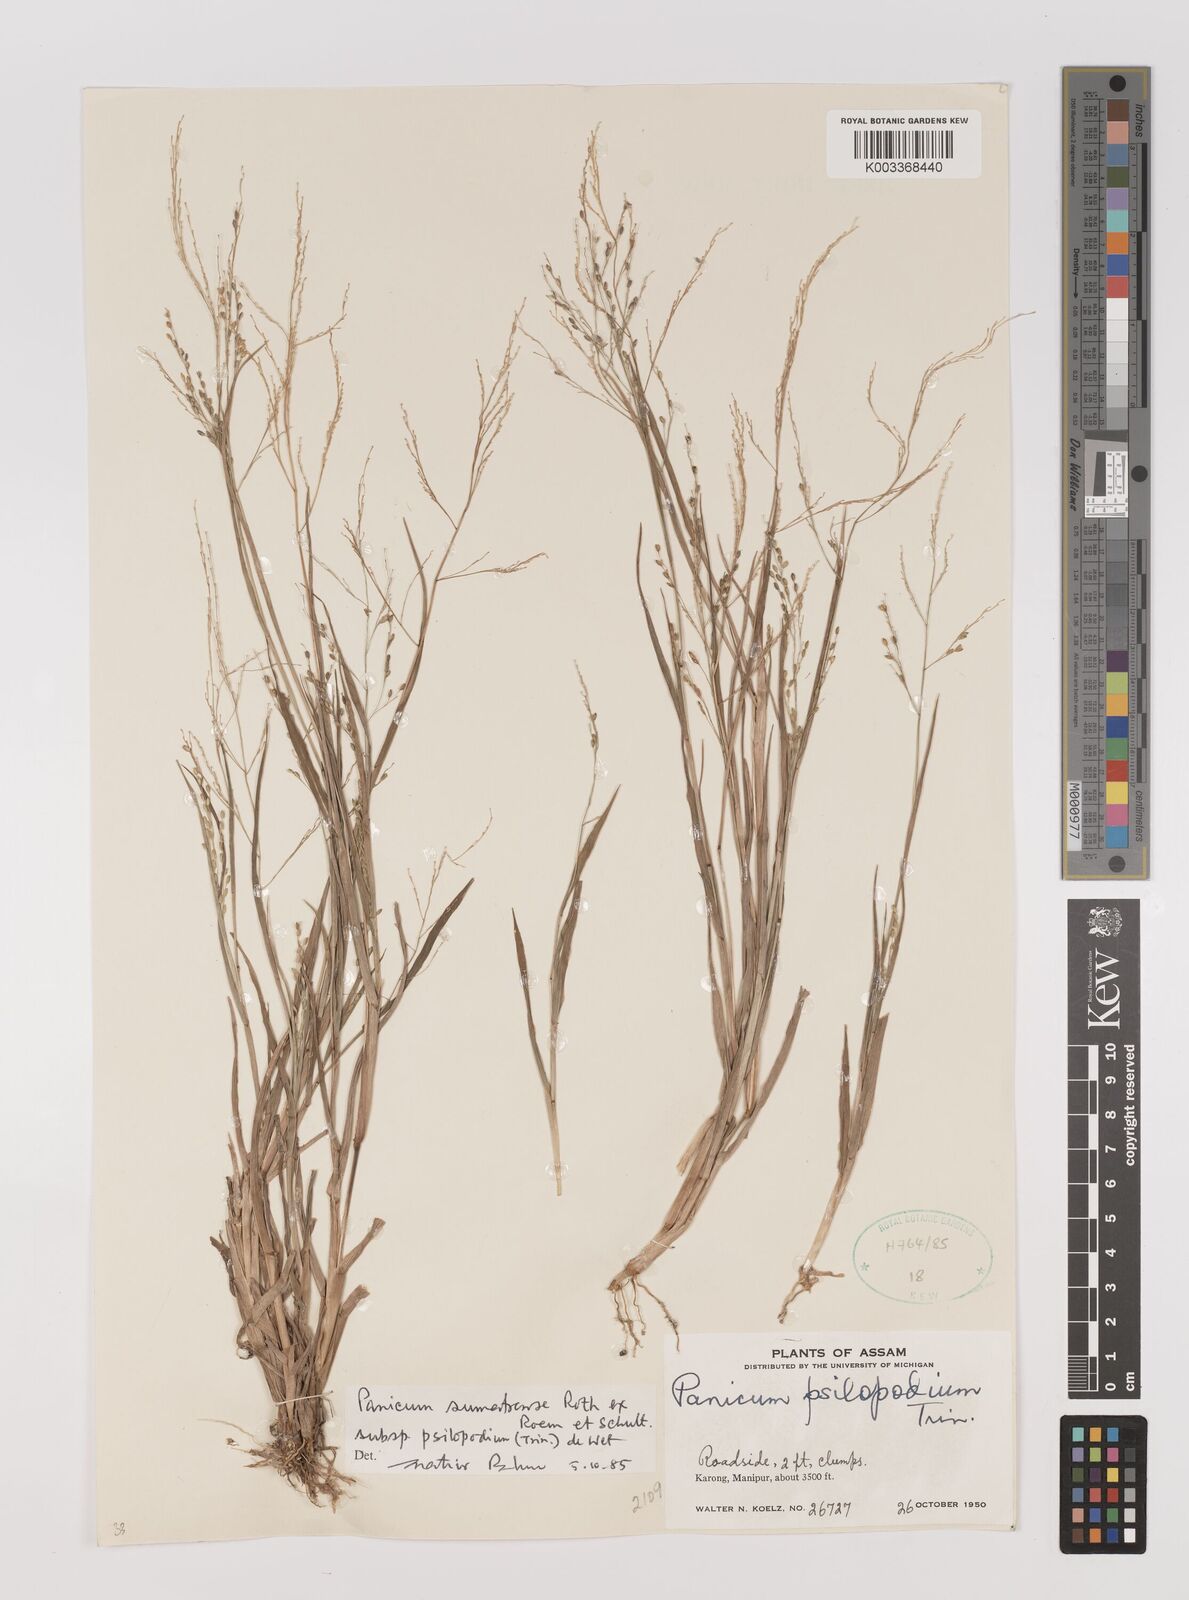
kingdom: Plantae
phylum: Tracheophyta
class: Liliopsida
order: Poales
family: Poaceae
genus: Panicum
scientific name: Panicum sumatrense
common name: Little millet
